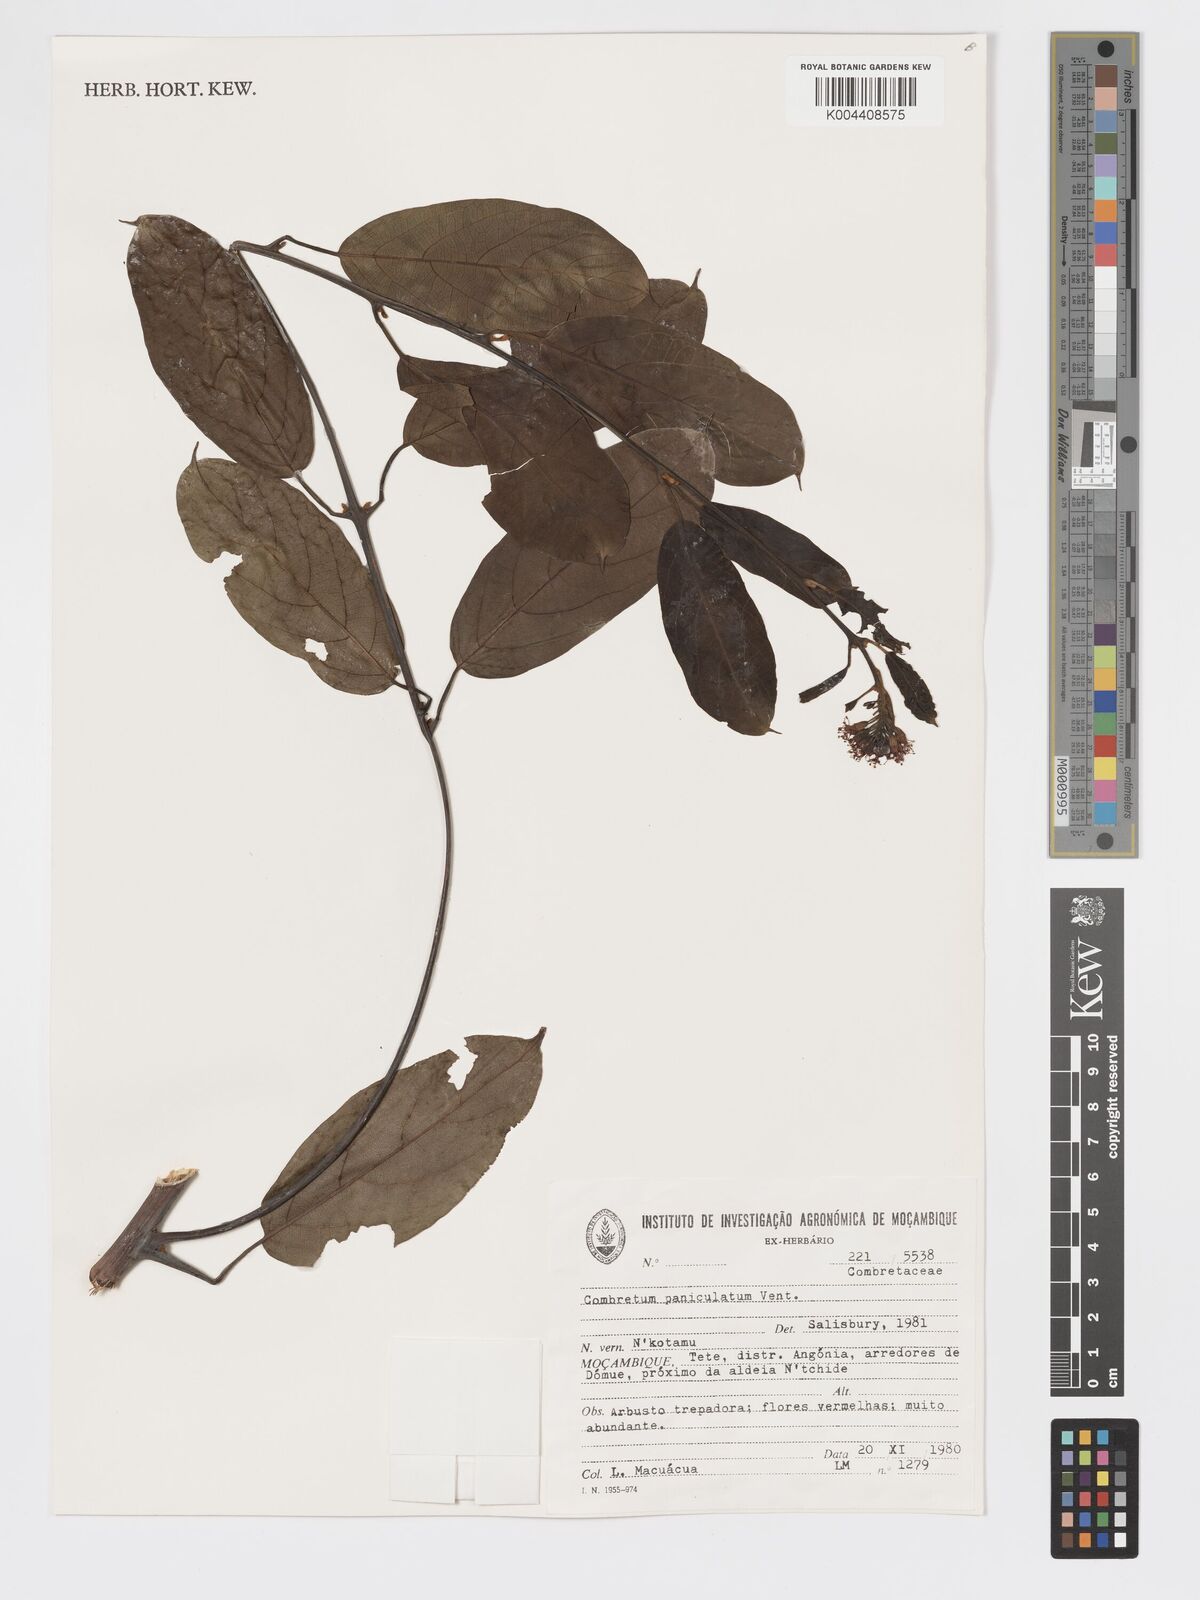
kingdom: Plantae
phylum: Tracheophyta
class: Magnoliopsida
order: Myrtales
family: Combretaceae
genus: Combretum
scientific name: Combretum microphyllum
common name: Burningbush
